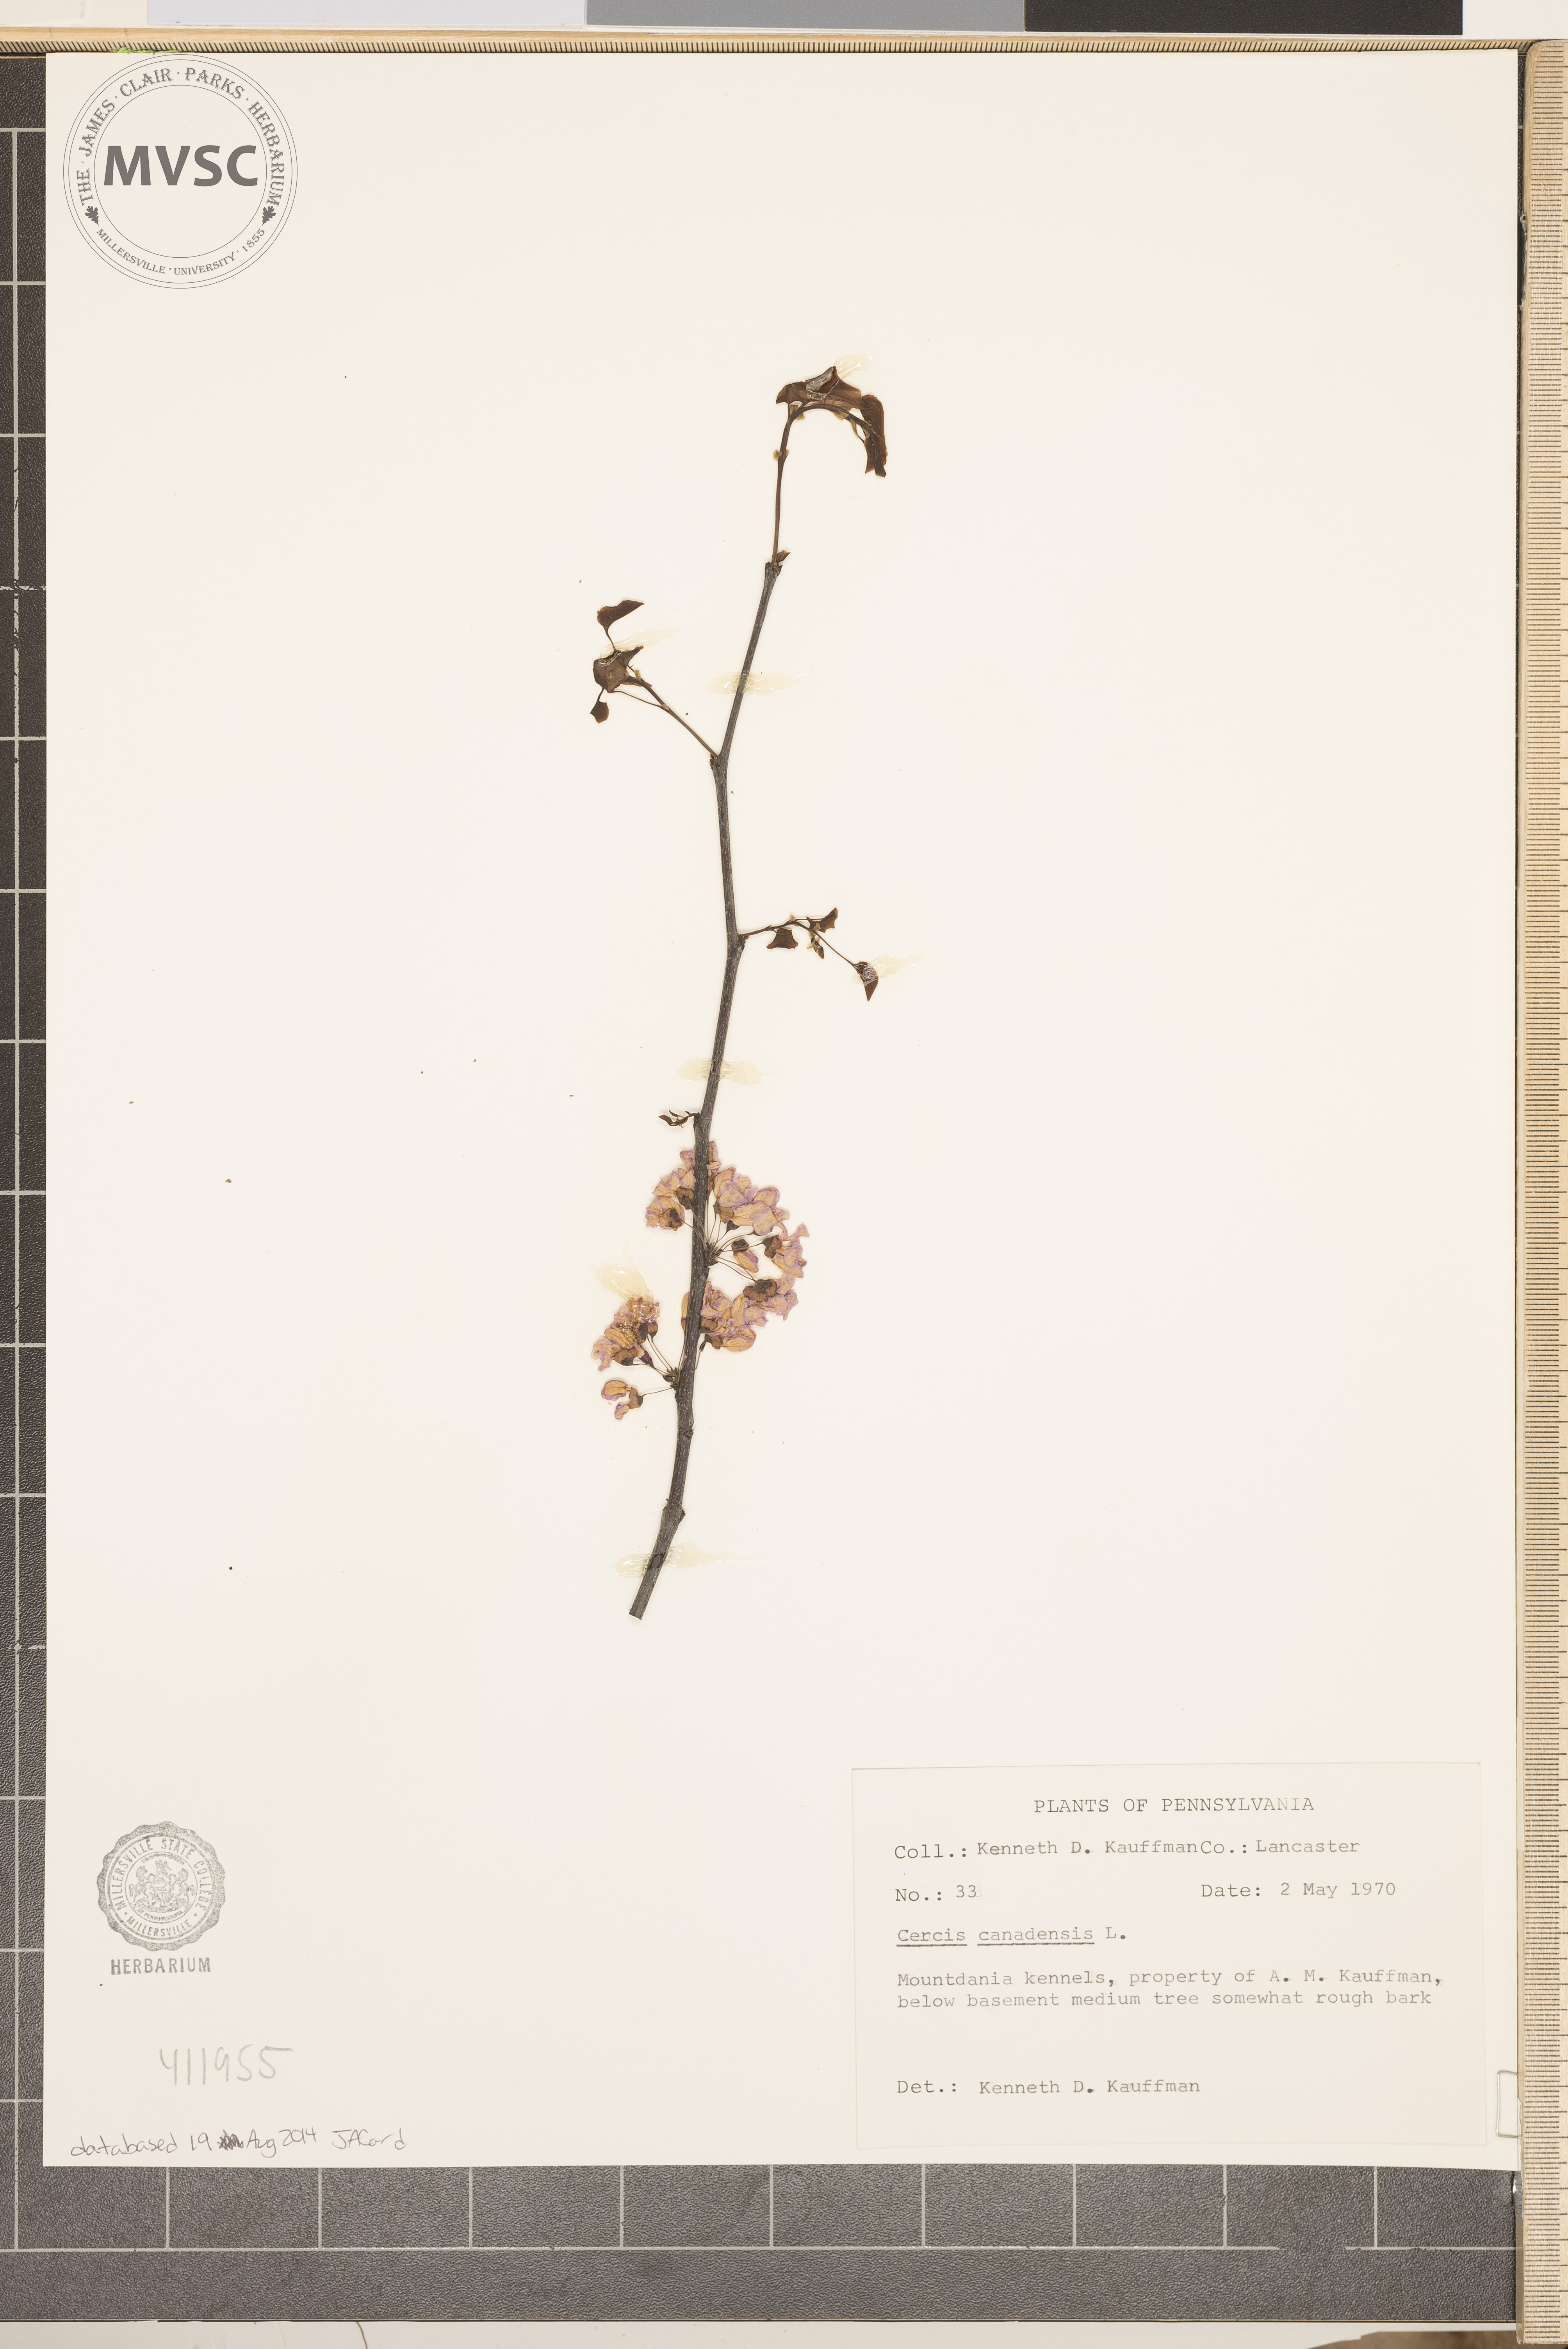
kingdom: Plantae
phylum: Tracheophyta
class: Magnoliopsida
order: Fabales
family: Fabaceae
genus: Cercis
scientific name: Cercis canadensis
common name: Eastern redbud
